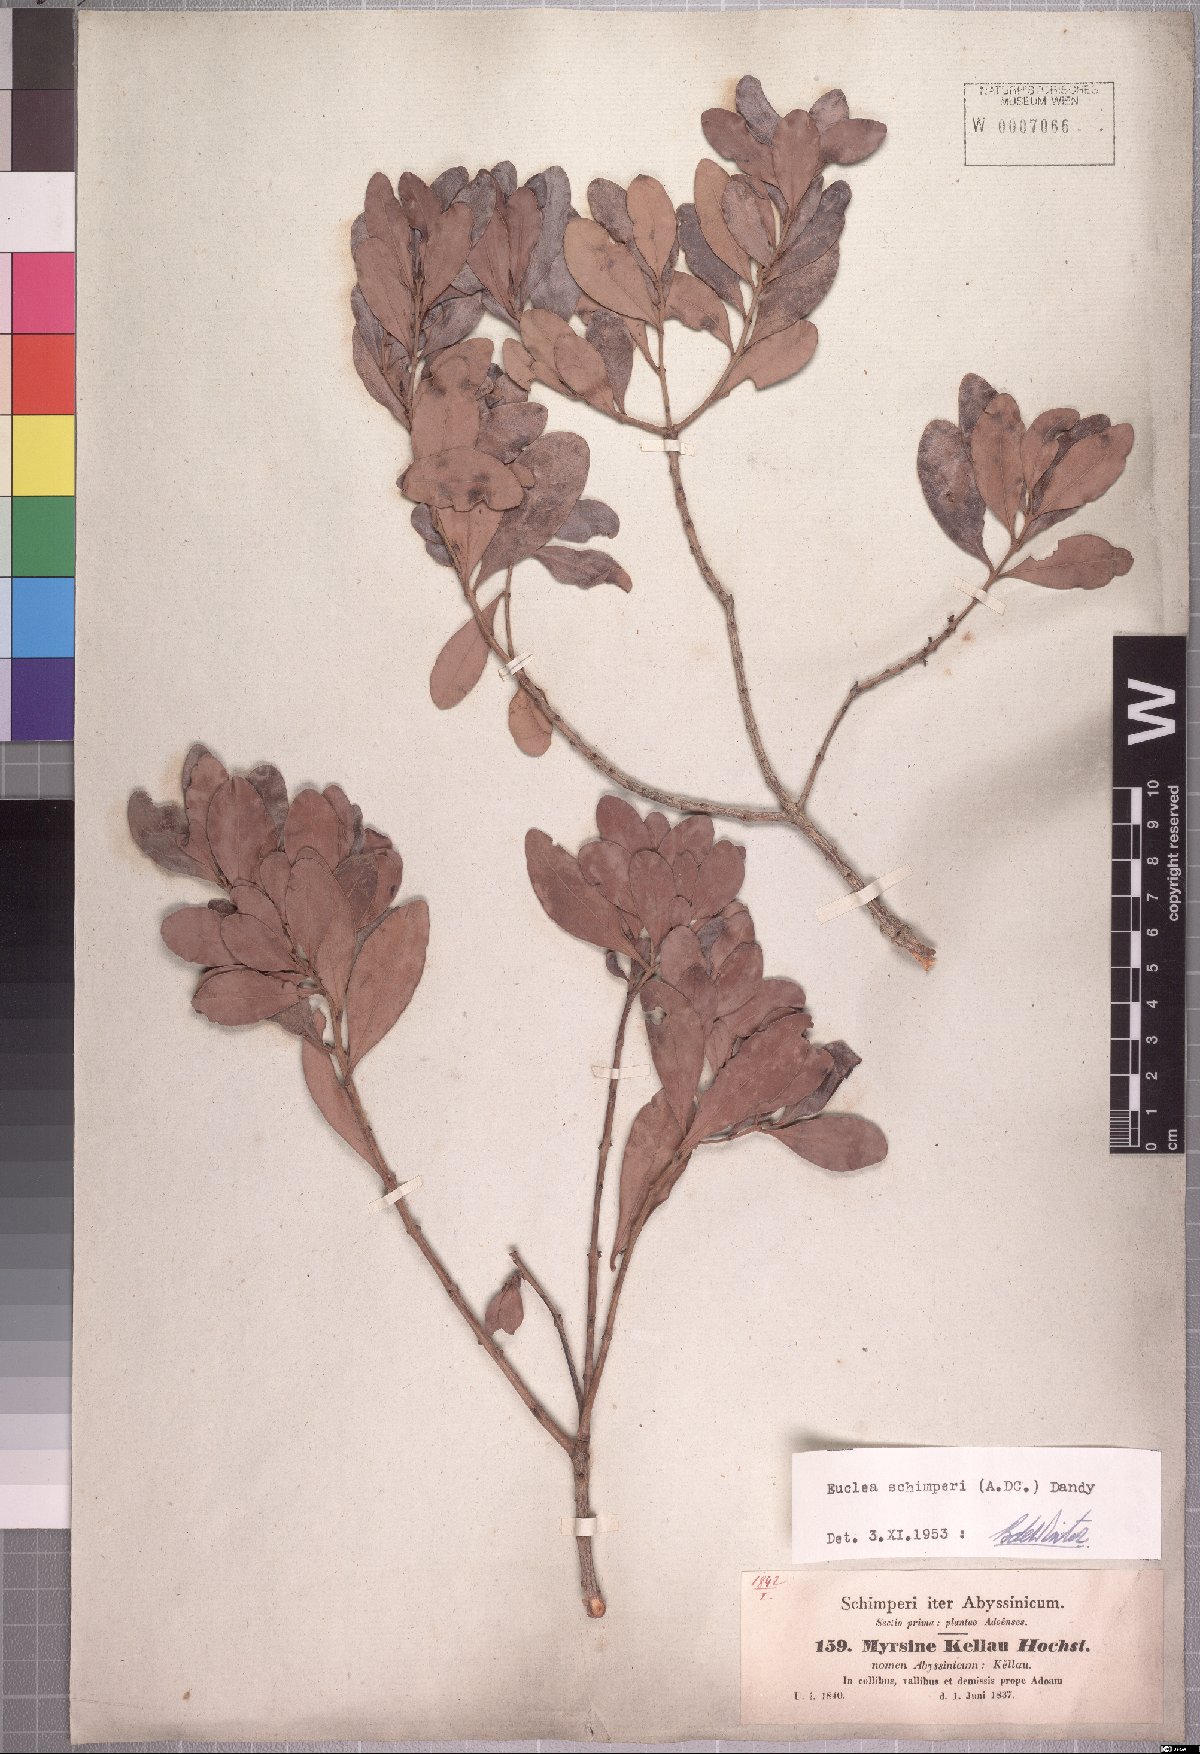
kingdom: Plantae
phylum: Tracheophyta
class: Magnoliopsida
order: Ericales
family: Ebenaceae
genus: Euclea
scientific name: Euclea racemosa
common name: Dune guarri
